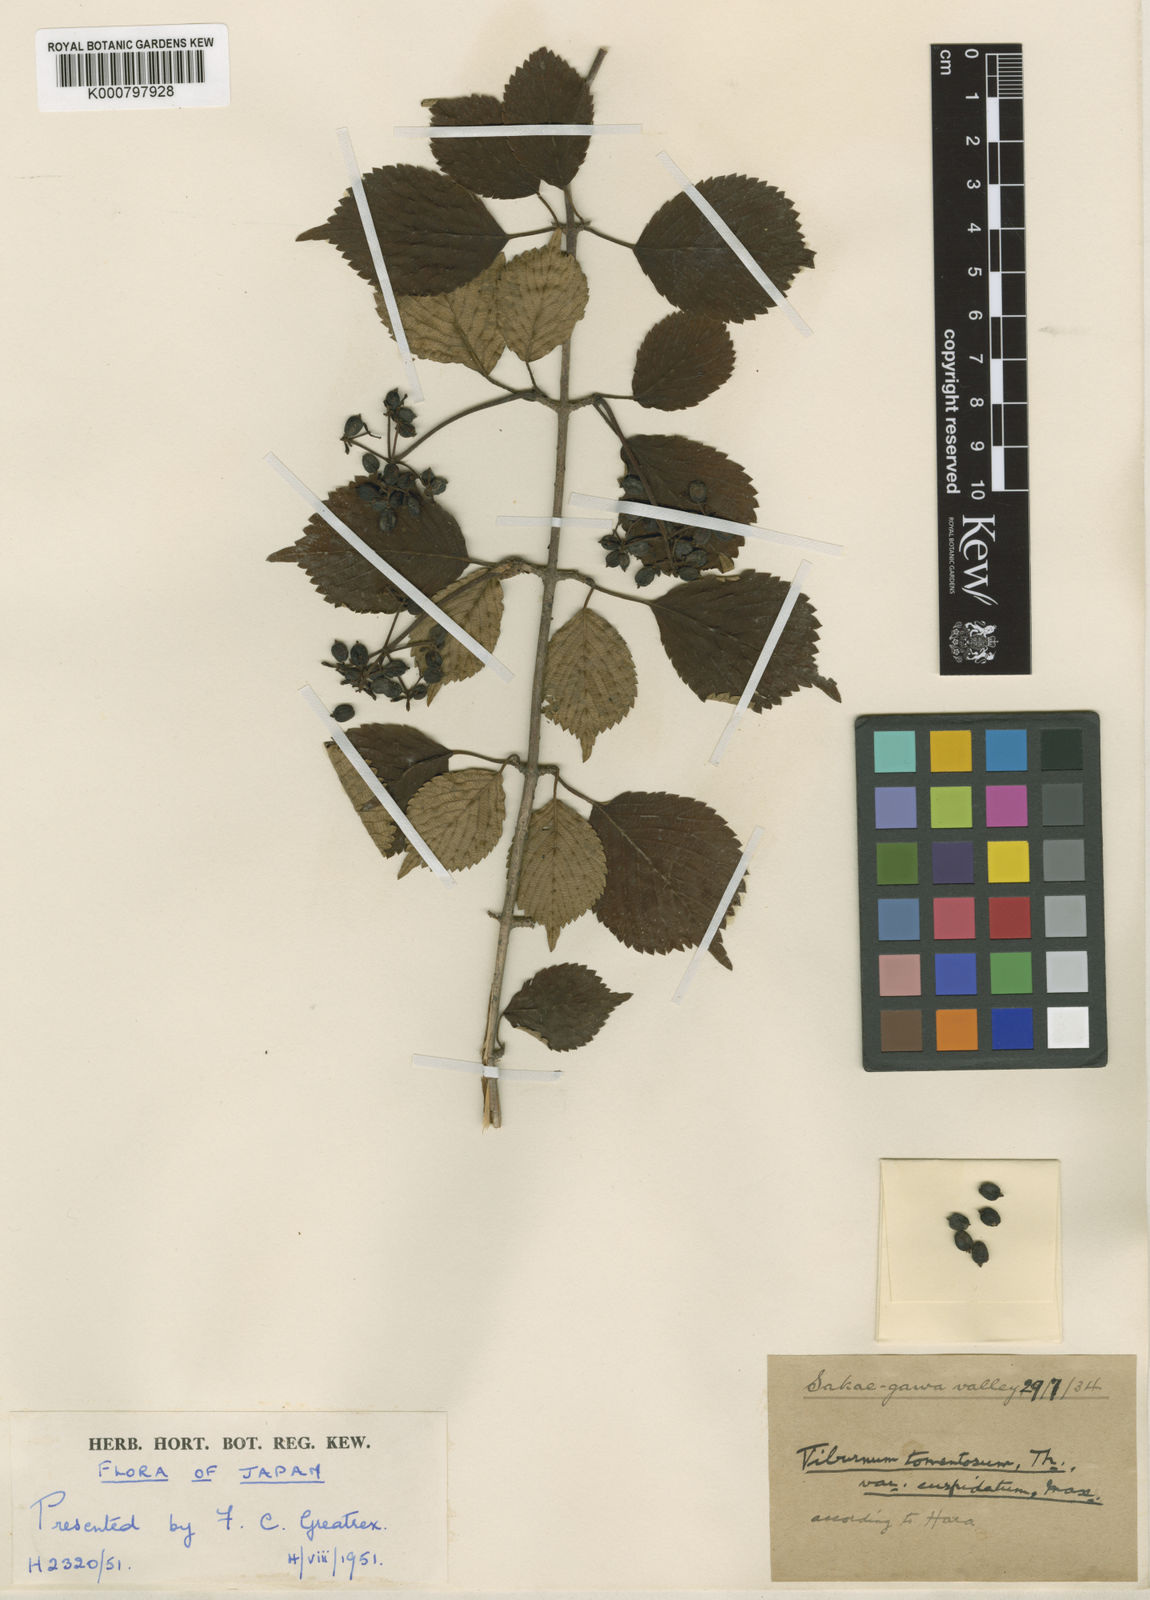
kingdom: Plantae
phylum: Tracheophyta
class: Magnoliopsida
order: Dipsacales
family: Viburnaceae
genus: Viburnum
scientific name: Viburnum
